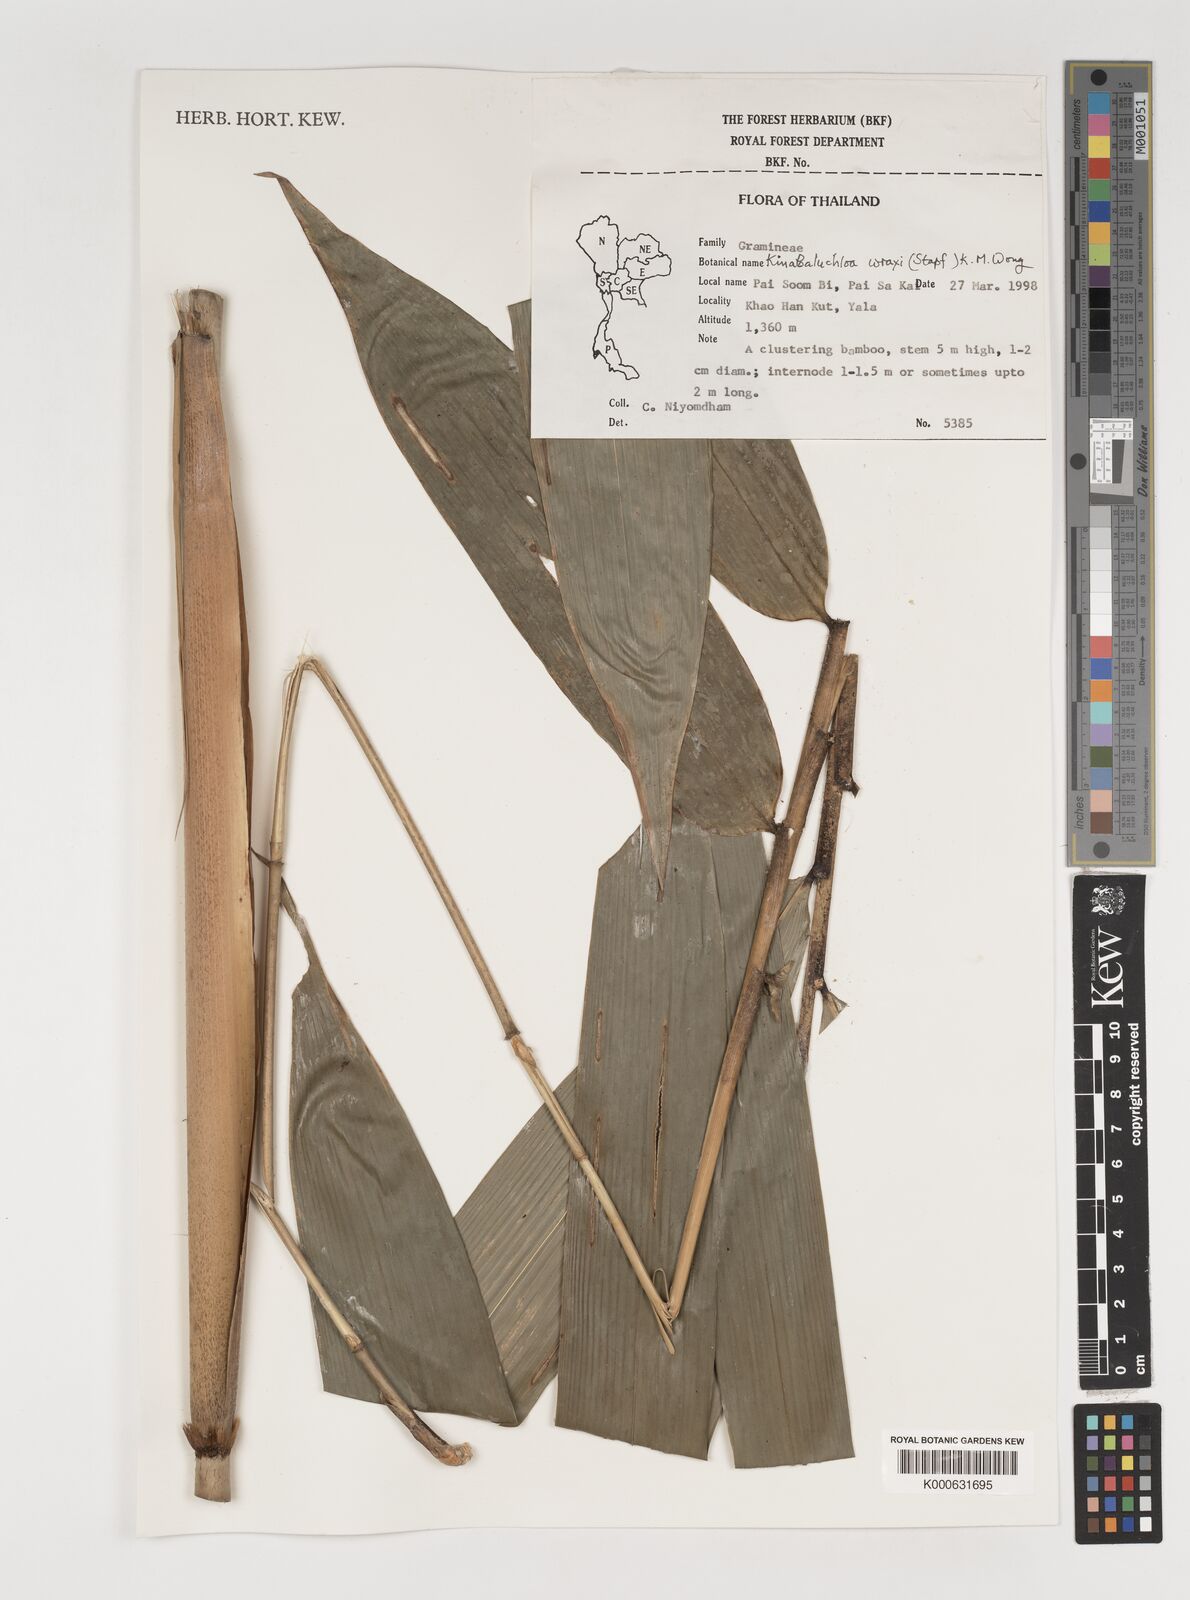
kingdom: Plantae
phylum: Tracheophyta
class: Liliopsida
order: Poales
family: Poaceae
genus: Kinabaluchloa
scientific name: Kinabaluchloa wrayi
